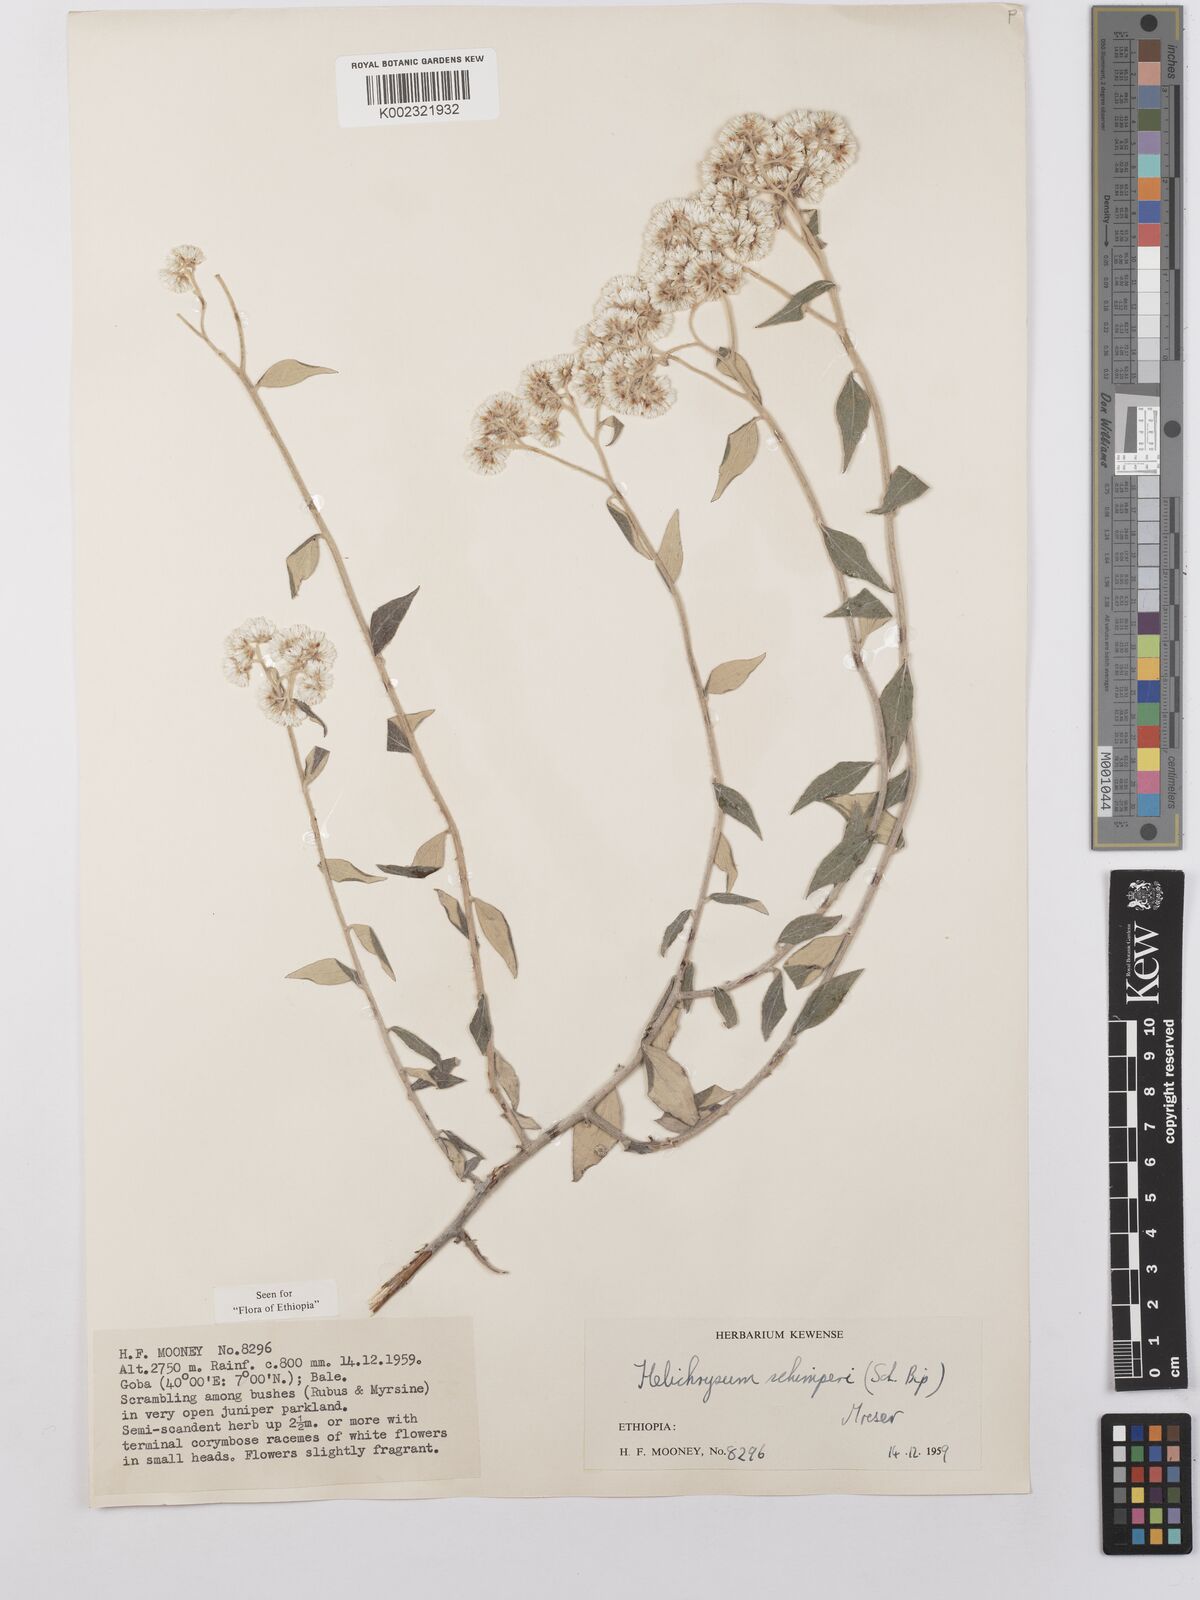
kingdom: Plantae
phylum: Tracheophyta
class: Magnoliopsida
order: Asterales
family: Asteraceae
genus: Helichrysum
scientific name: Helichrysum schimperi
